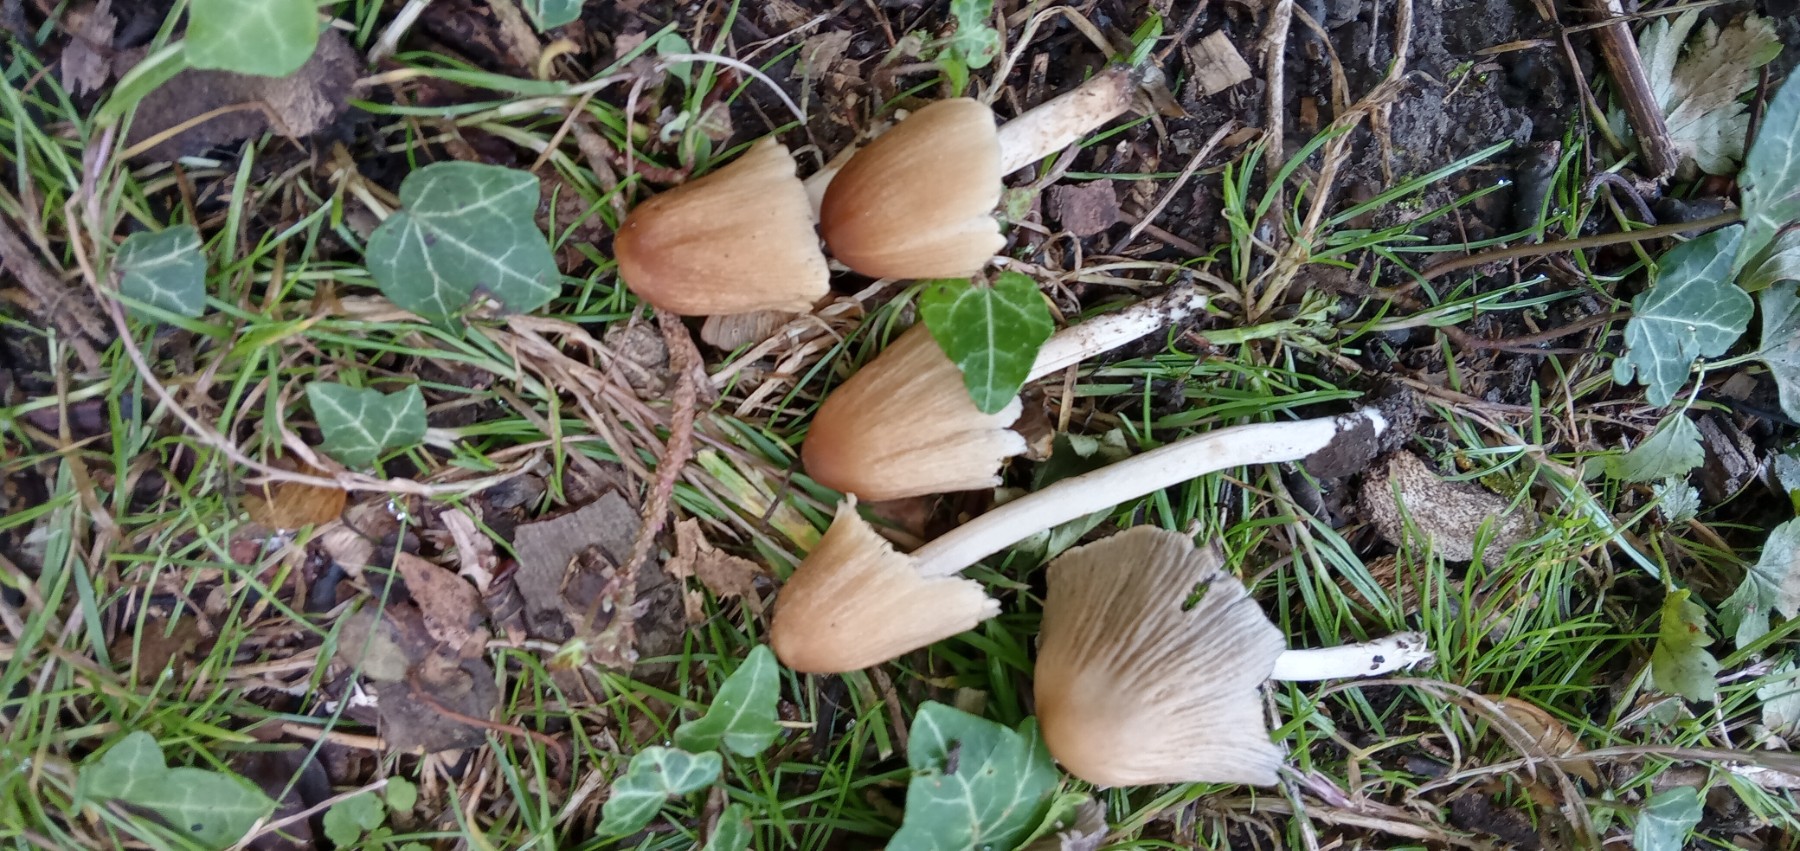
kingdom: Fungi
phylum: Basidiomycota
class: Agaricomycetes
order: Agaricales
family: Psathyrellaceae
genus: Coprinellus
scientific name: Coprinellus micaceus
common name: glimmer-blækhat
